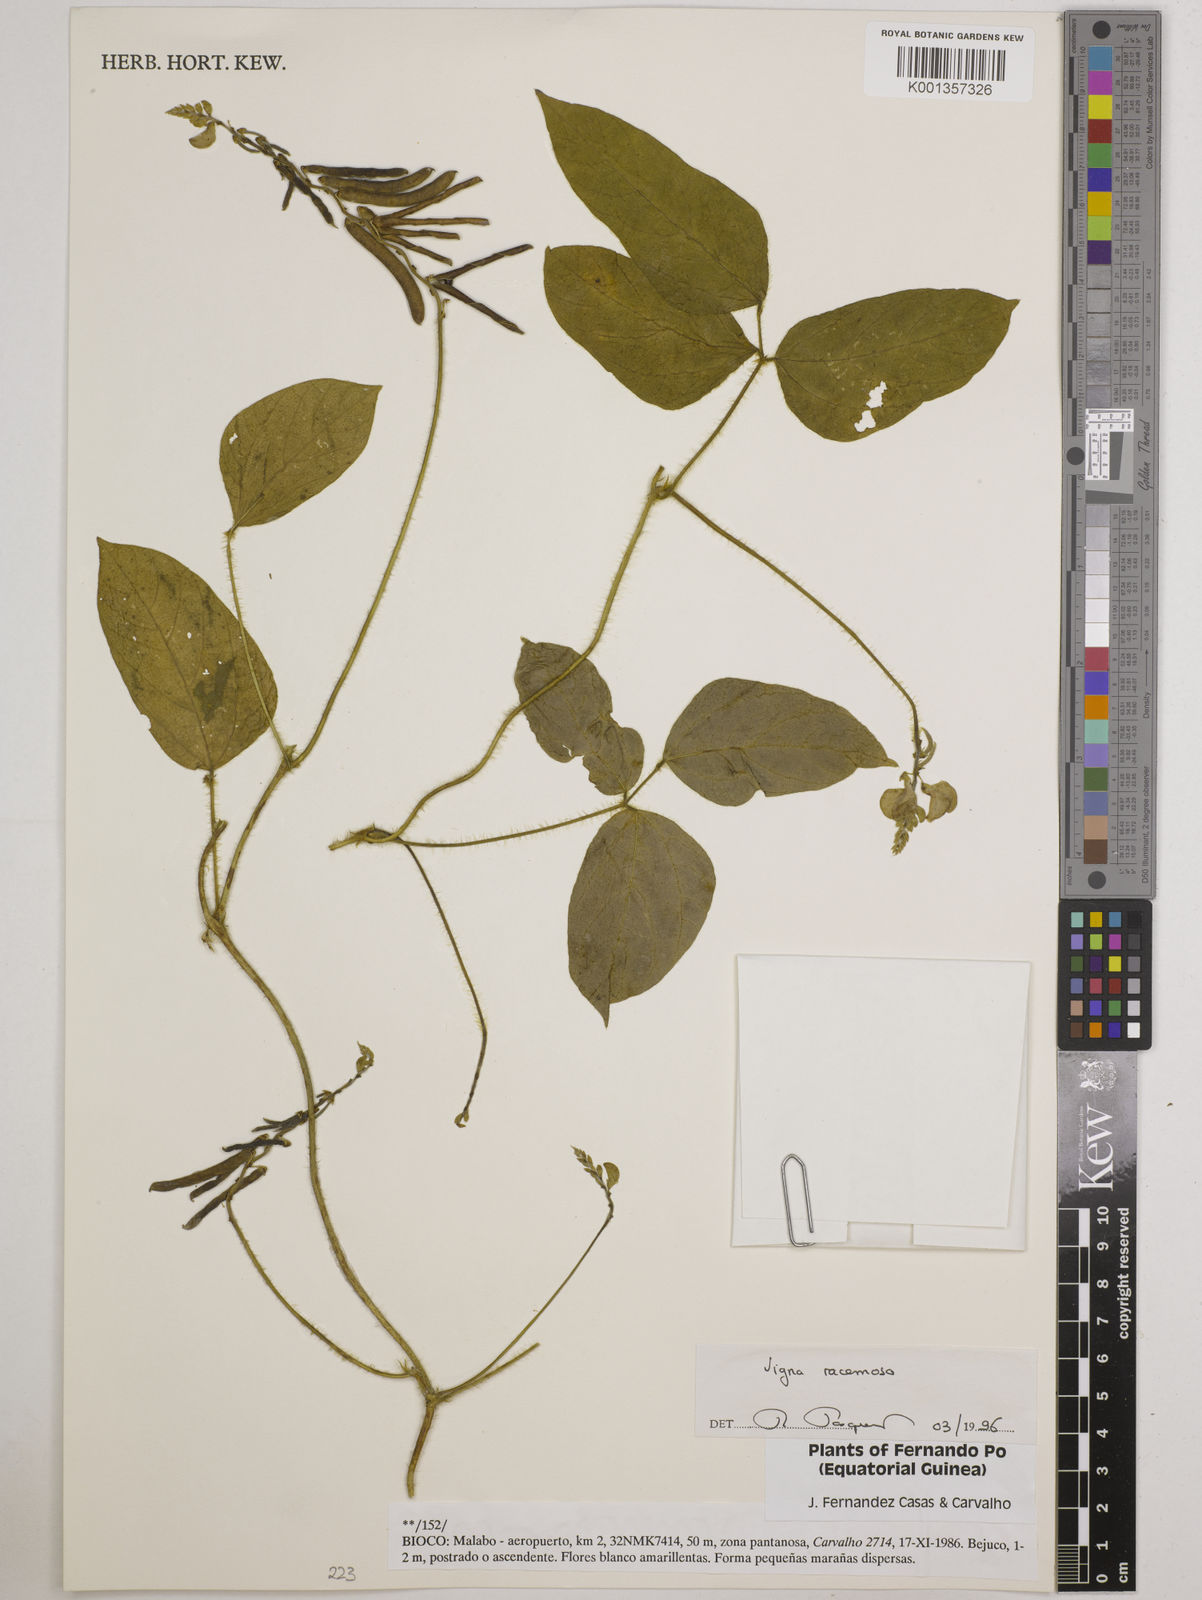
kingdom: Plantae
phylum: Tracheophyta
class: Magnoliopsida
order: Fabales
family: Fabaceae
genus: Vigna
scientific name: Vigna racemosa
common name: Beans not eaten
